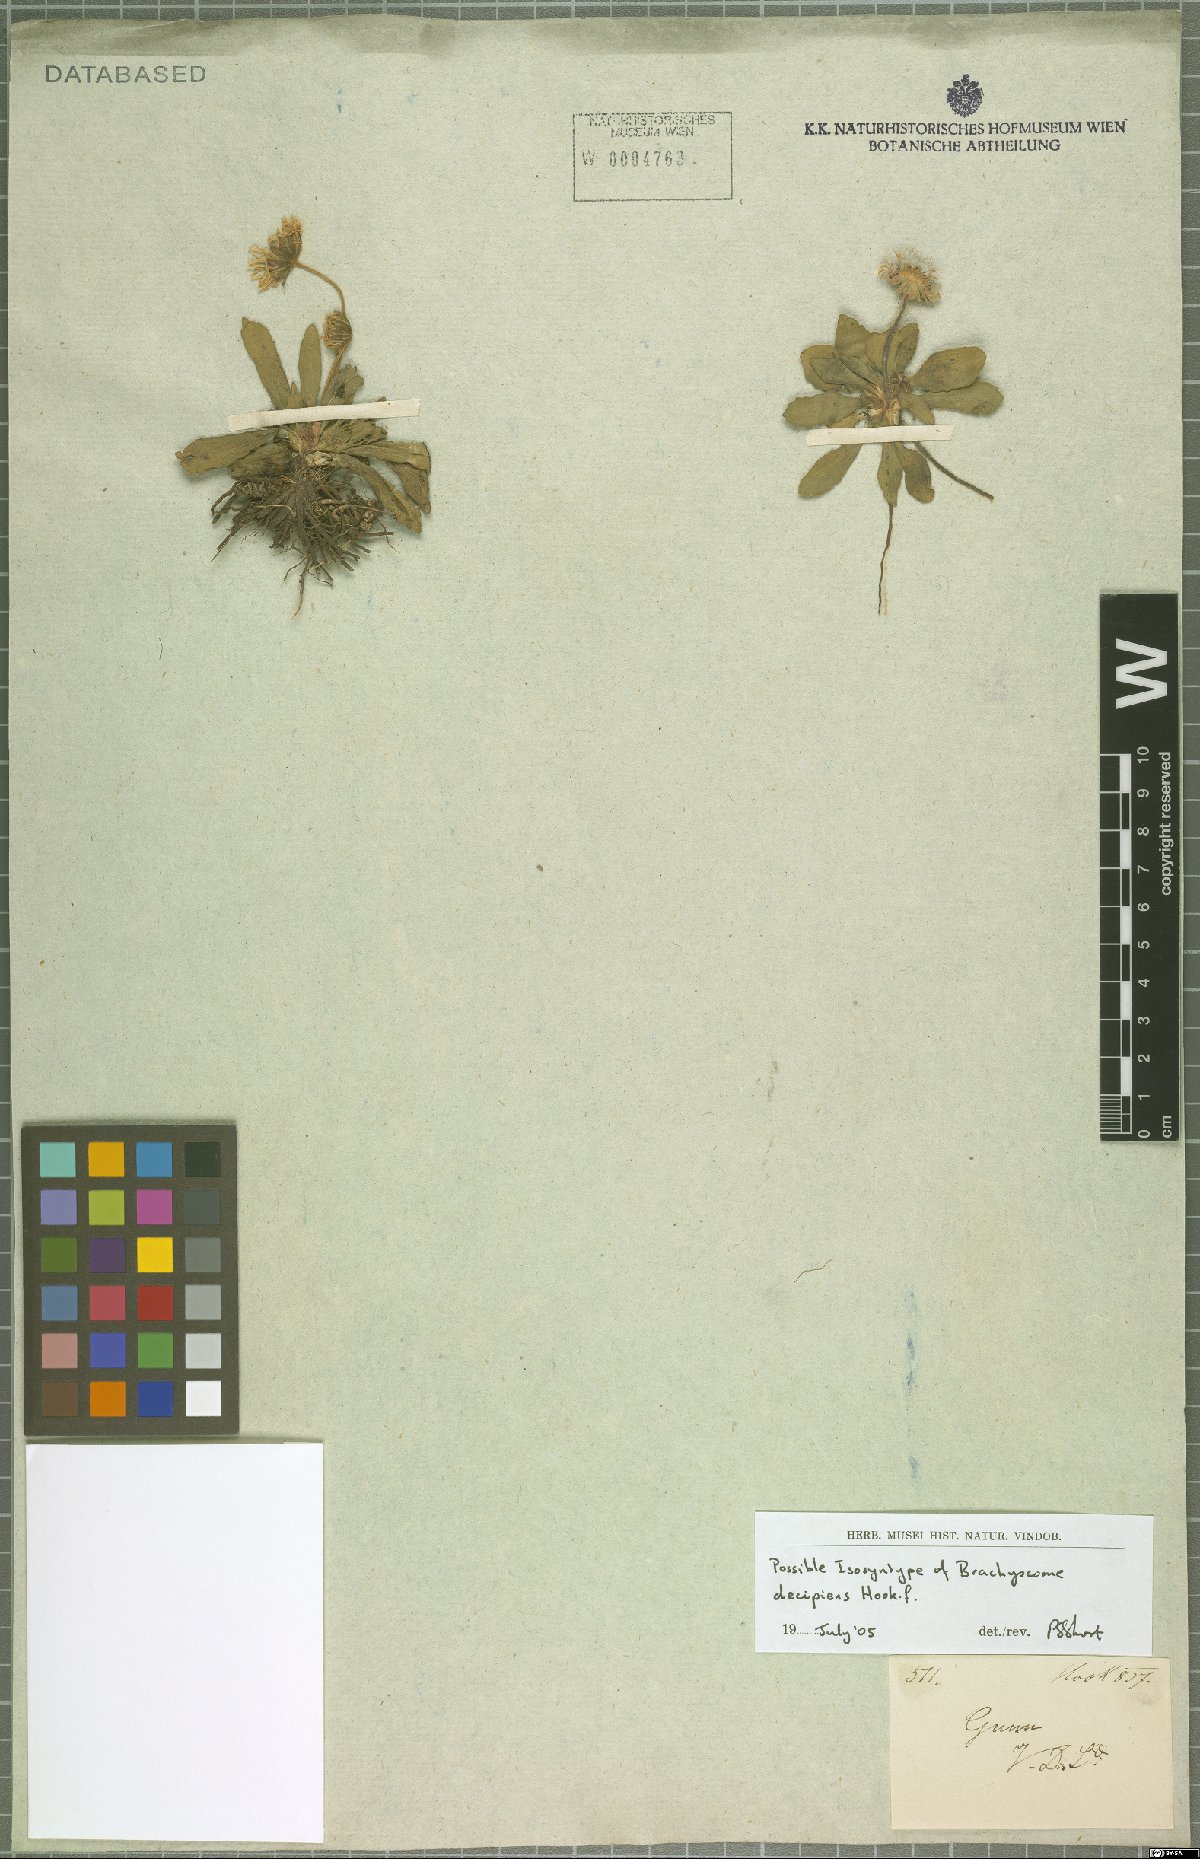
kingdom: Plantae
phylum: Tracheophyta
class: Magnoliopsida
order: Asterales
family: Asteraceae
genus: Brachyscome
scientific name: Brachyscome decipiens
